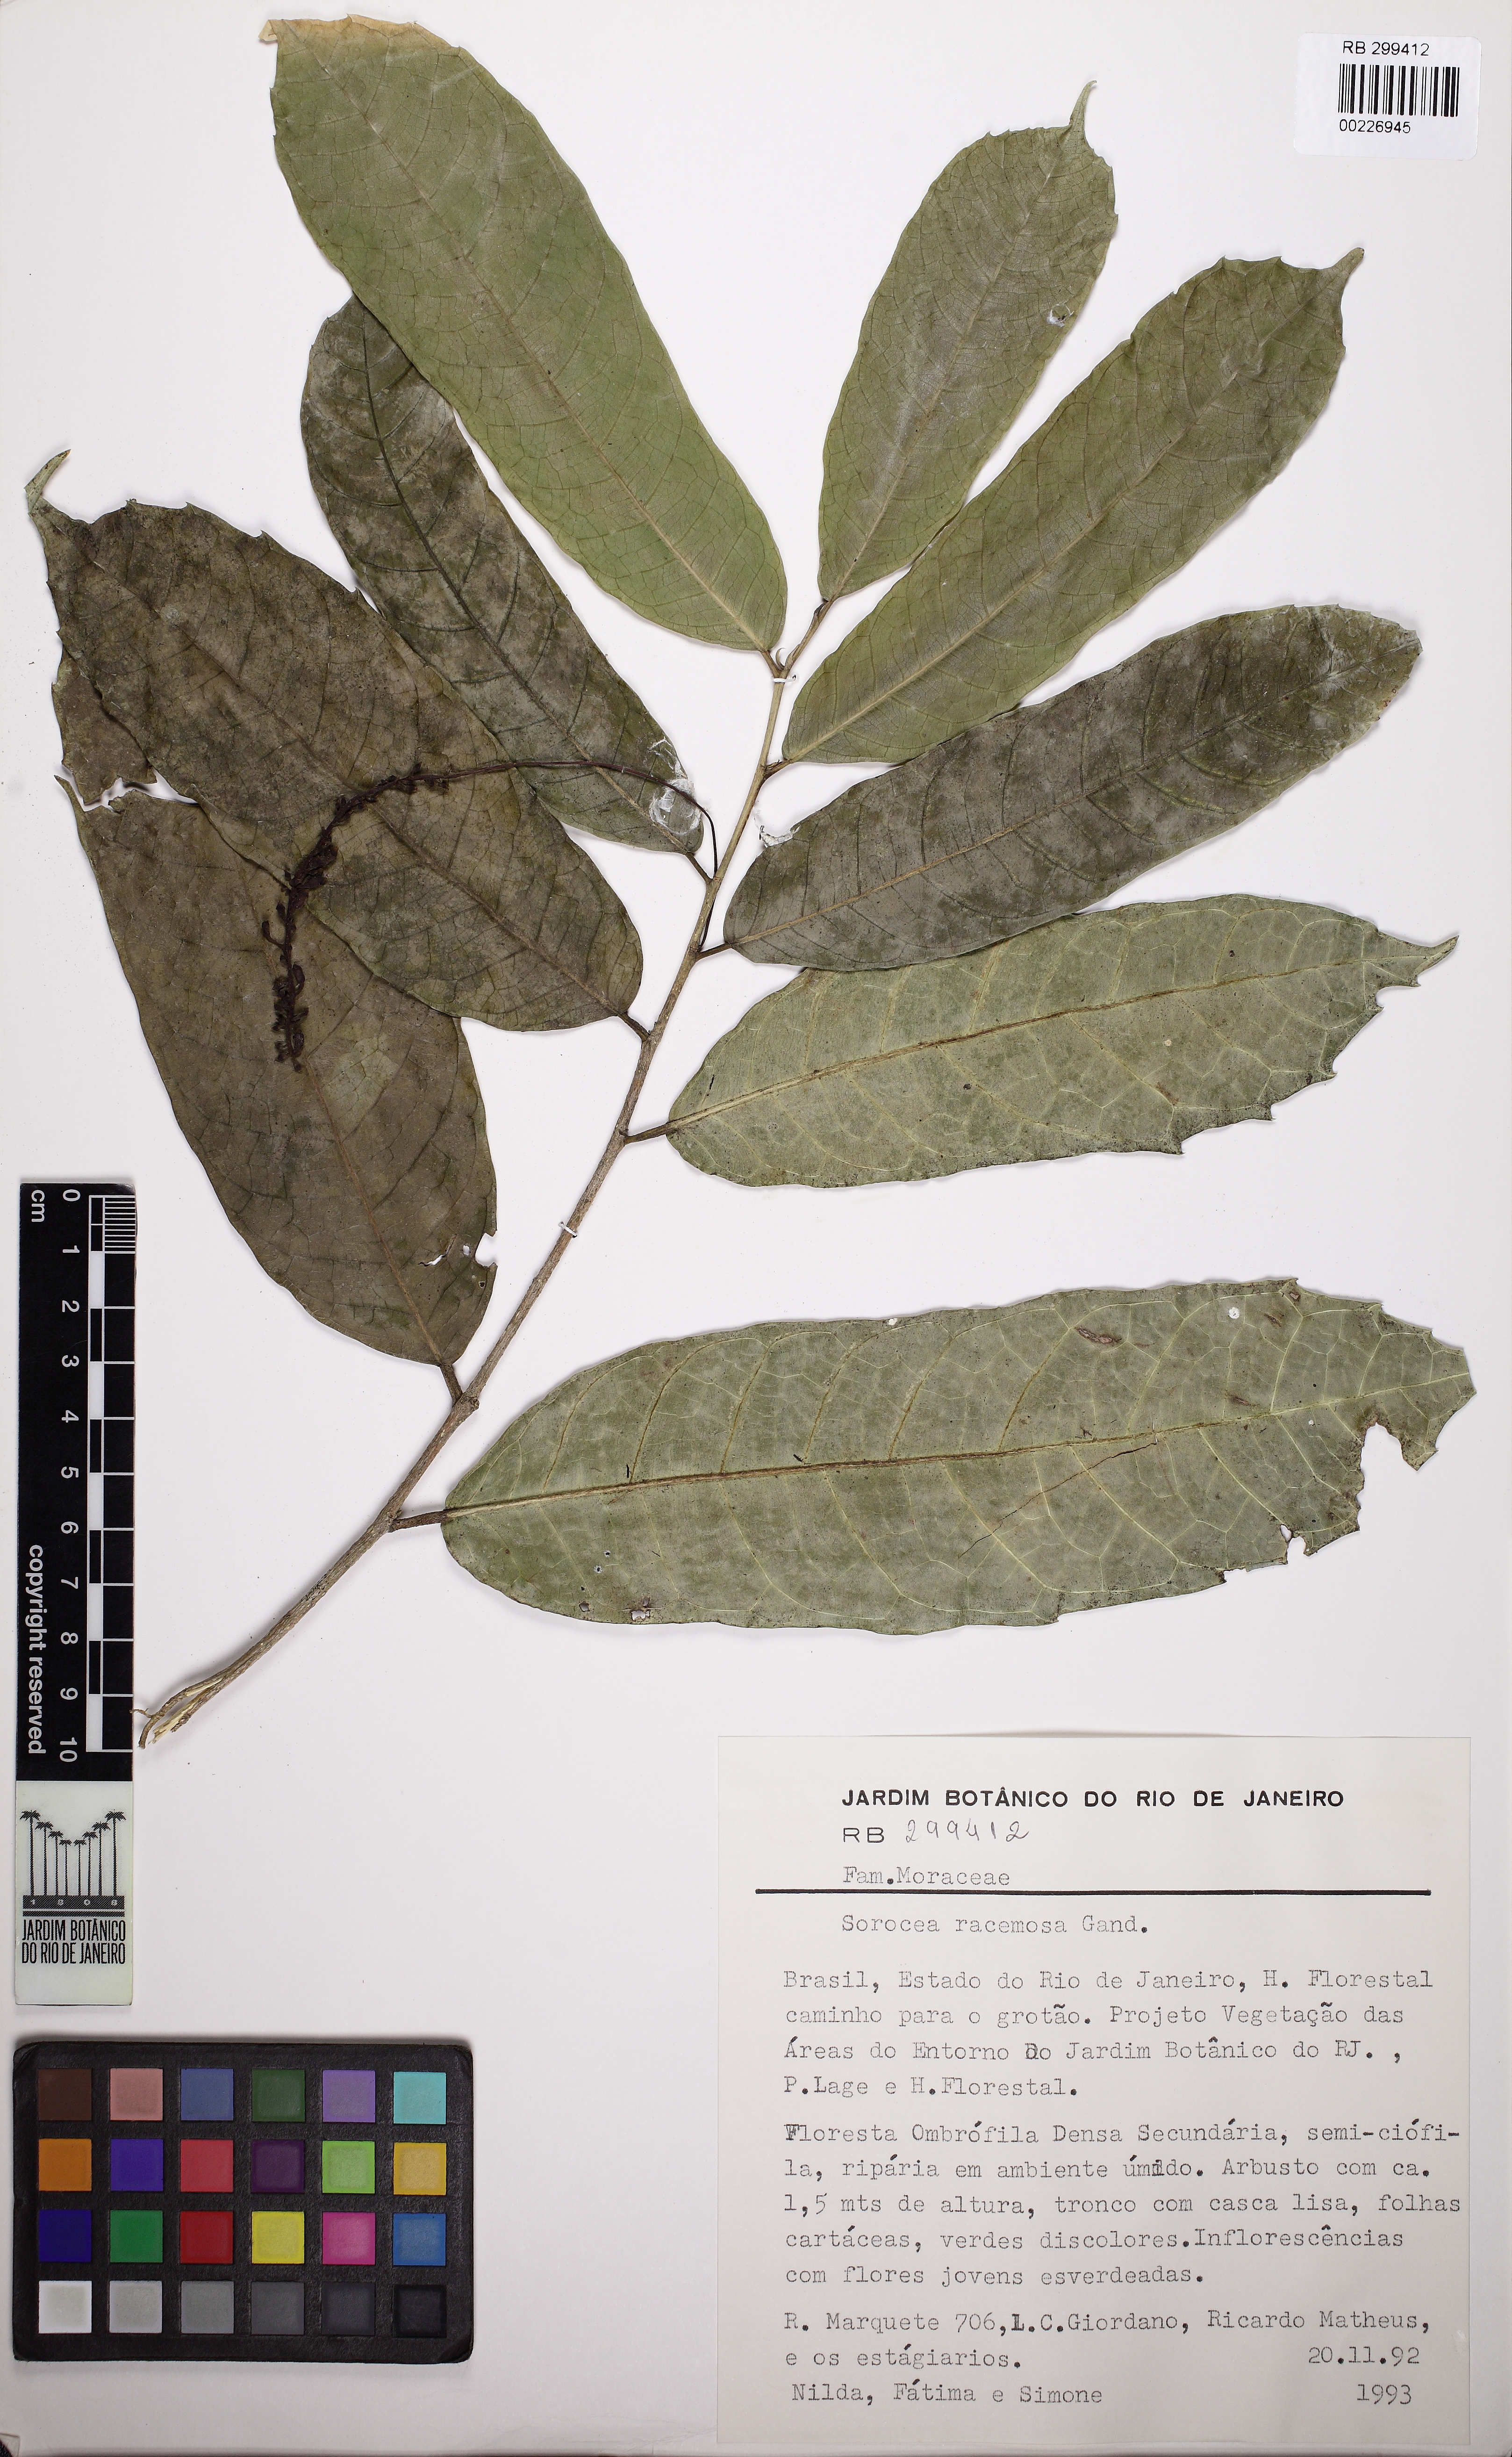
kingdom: Plantae
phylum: Tracheophyta
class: Magnoliopsida
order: Rosales
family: Moraceae
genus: Sorocea
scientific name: Sorocea hilarii
